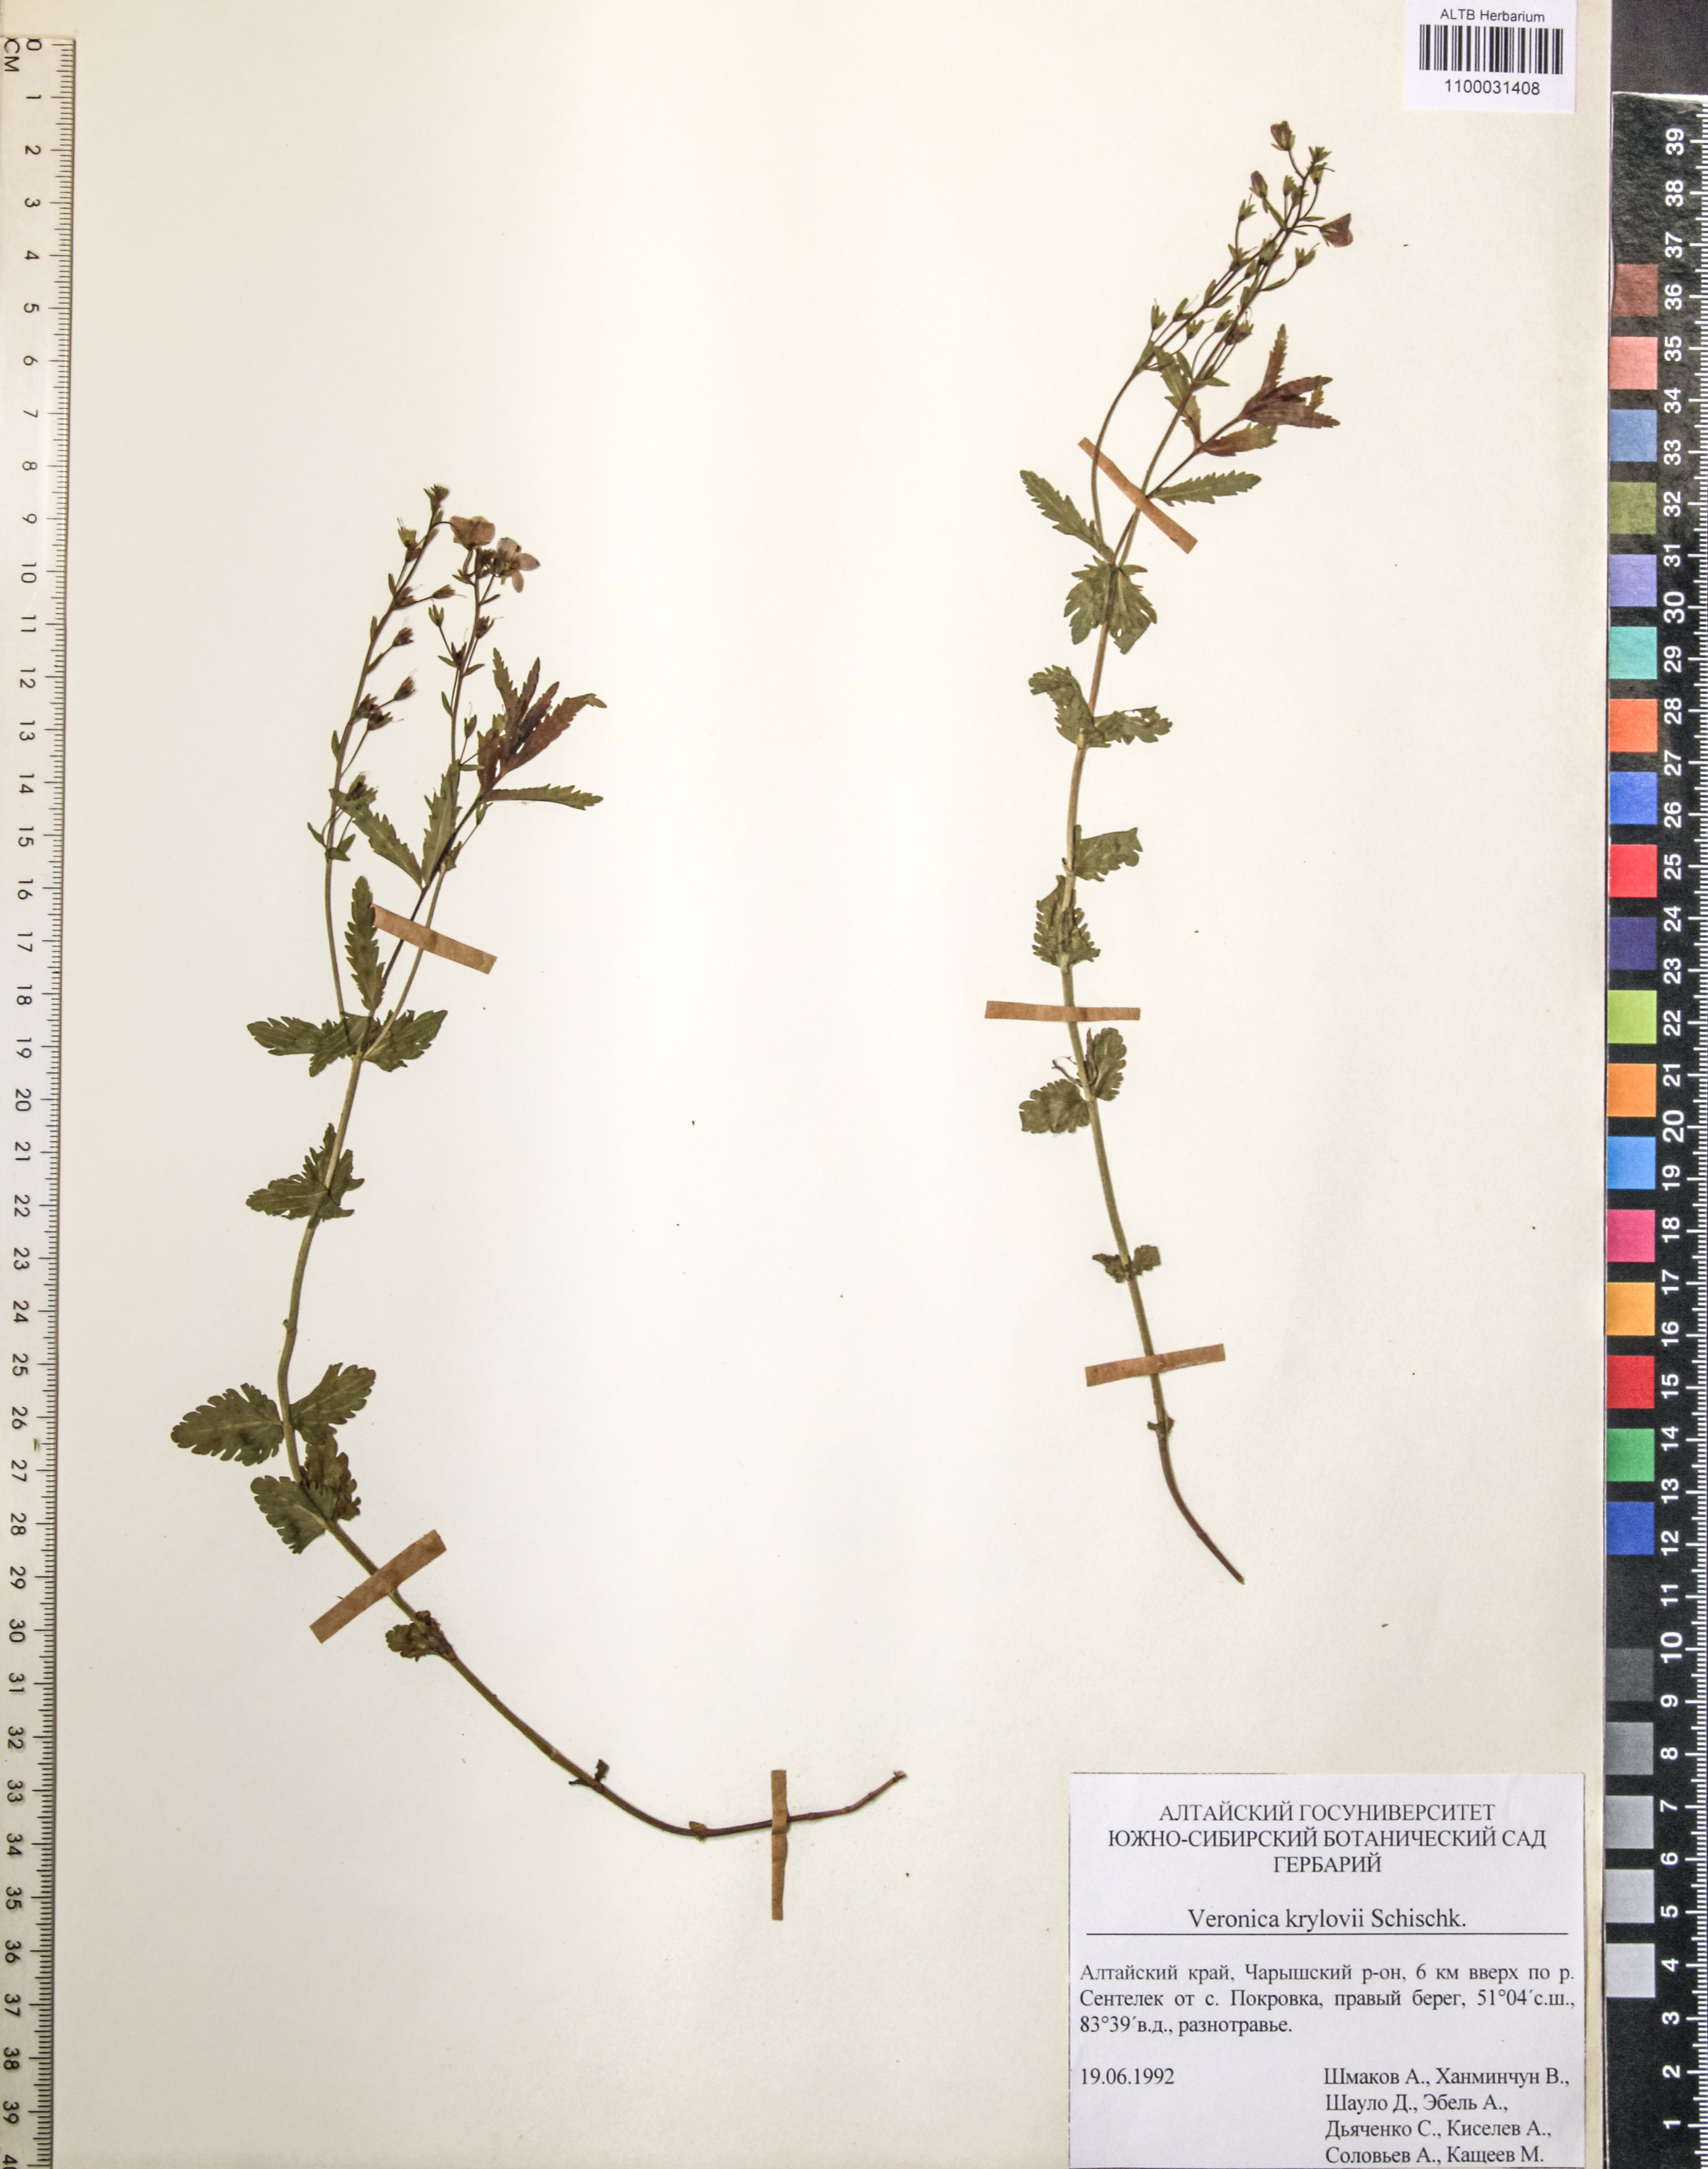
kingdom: Plantae
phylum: Tracheophyta
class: Magnoliopsida
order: Lamiales
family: Plantaginaceae
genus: Veronica
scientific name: Veronica krylovii
